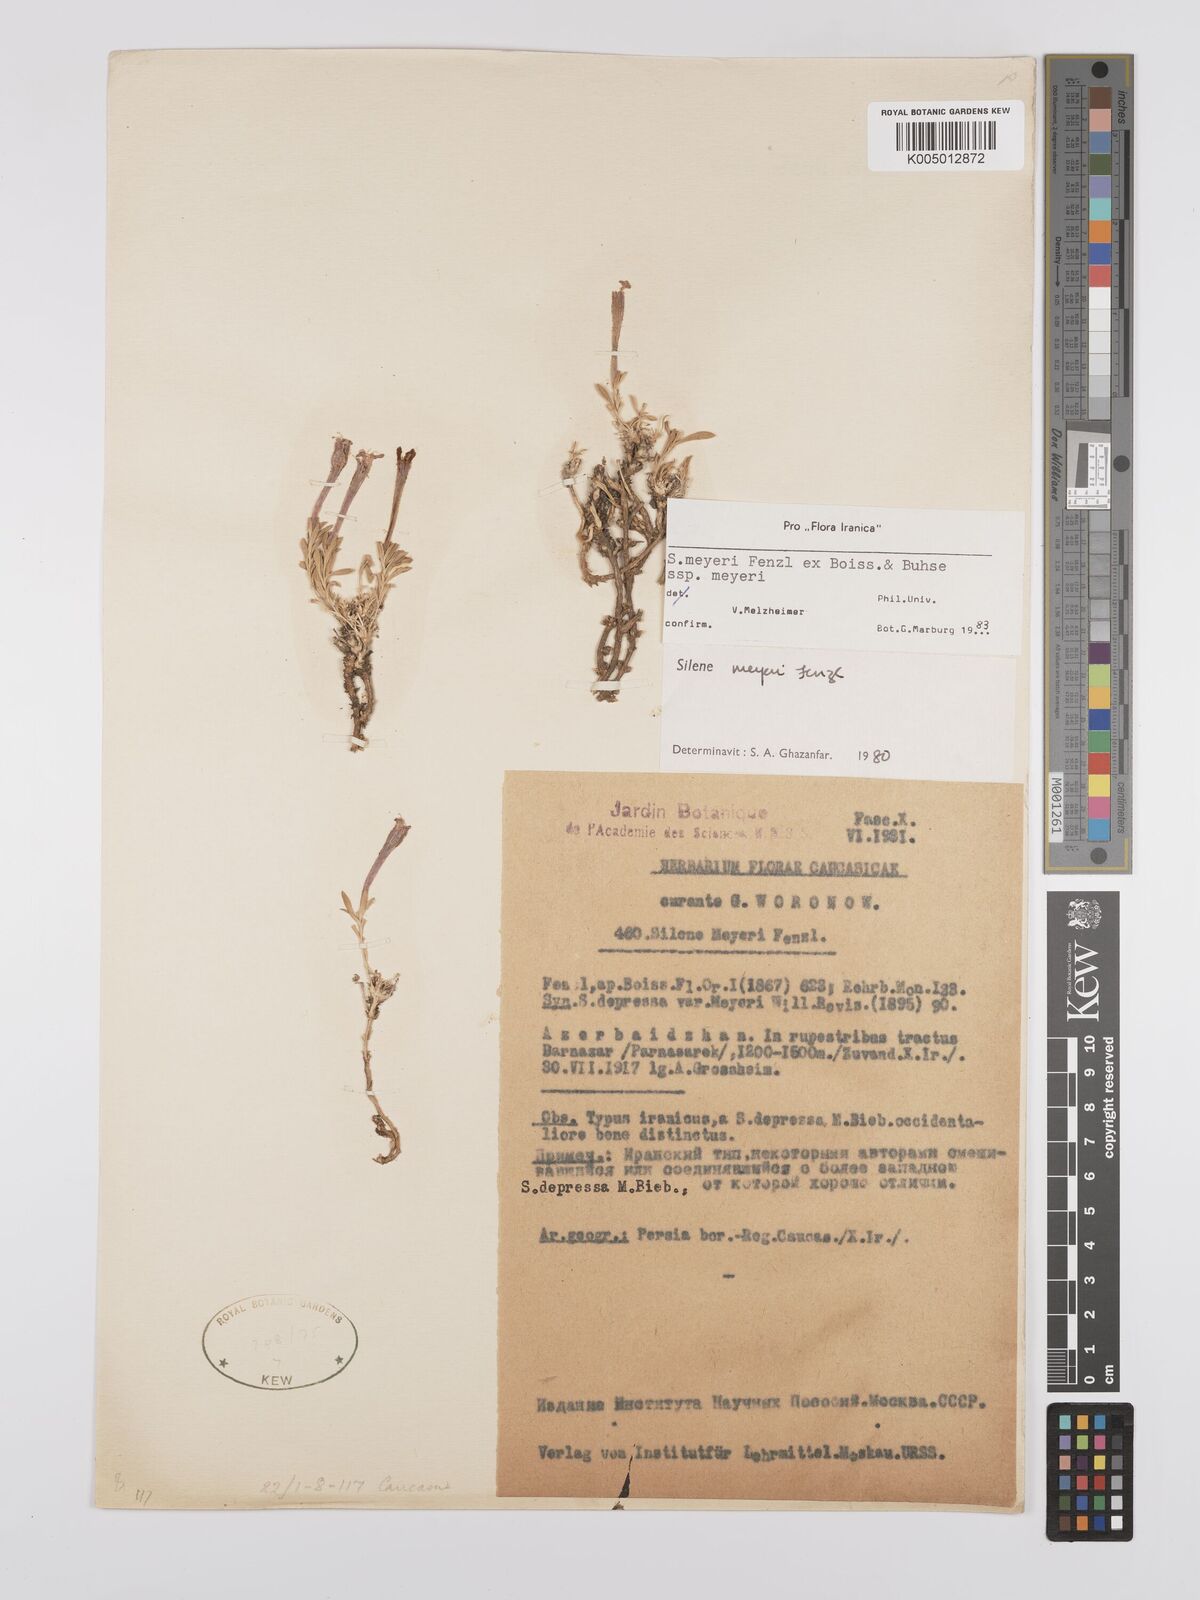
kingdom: Plantae
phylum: Tracheophyta
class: Magnoliopsida
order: Caryophyllales
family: Caryophyllaceae
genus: Silene
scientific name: Silene meyeri
